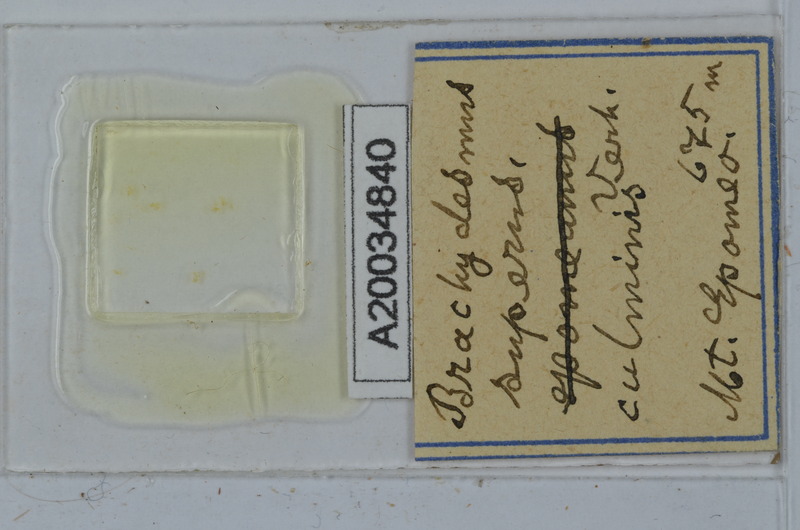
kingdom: Animalia
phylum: Arthropoda
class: Diplopoda
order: Polydesmida
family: Polydesmidae
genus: Brachydesmus
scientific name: Brachydesmus superus
